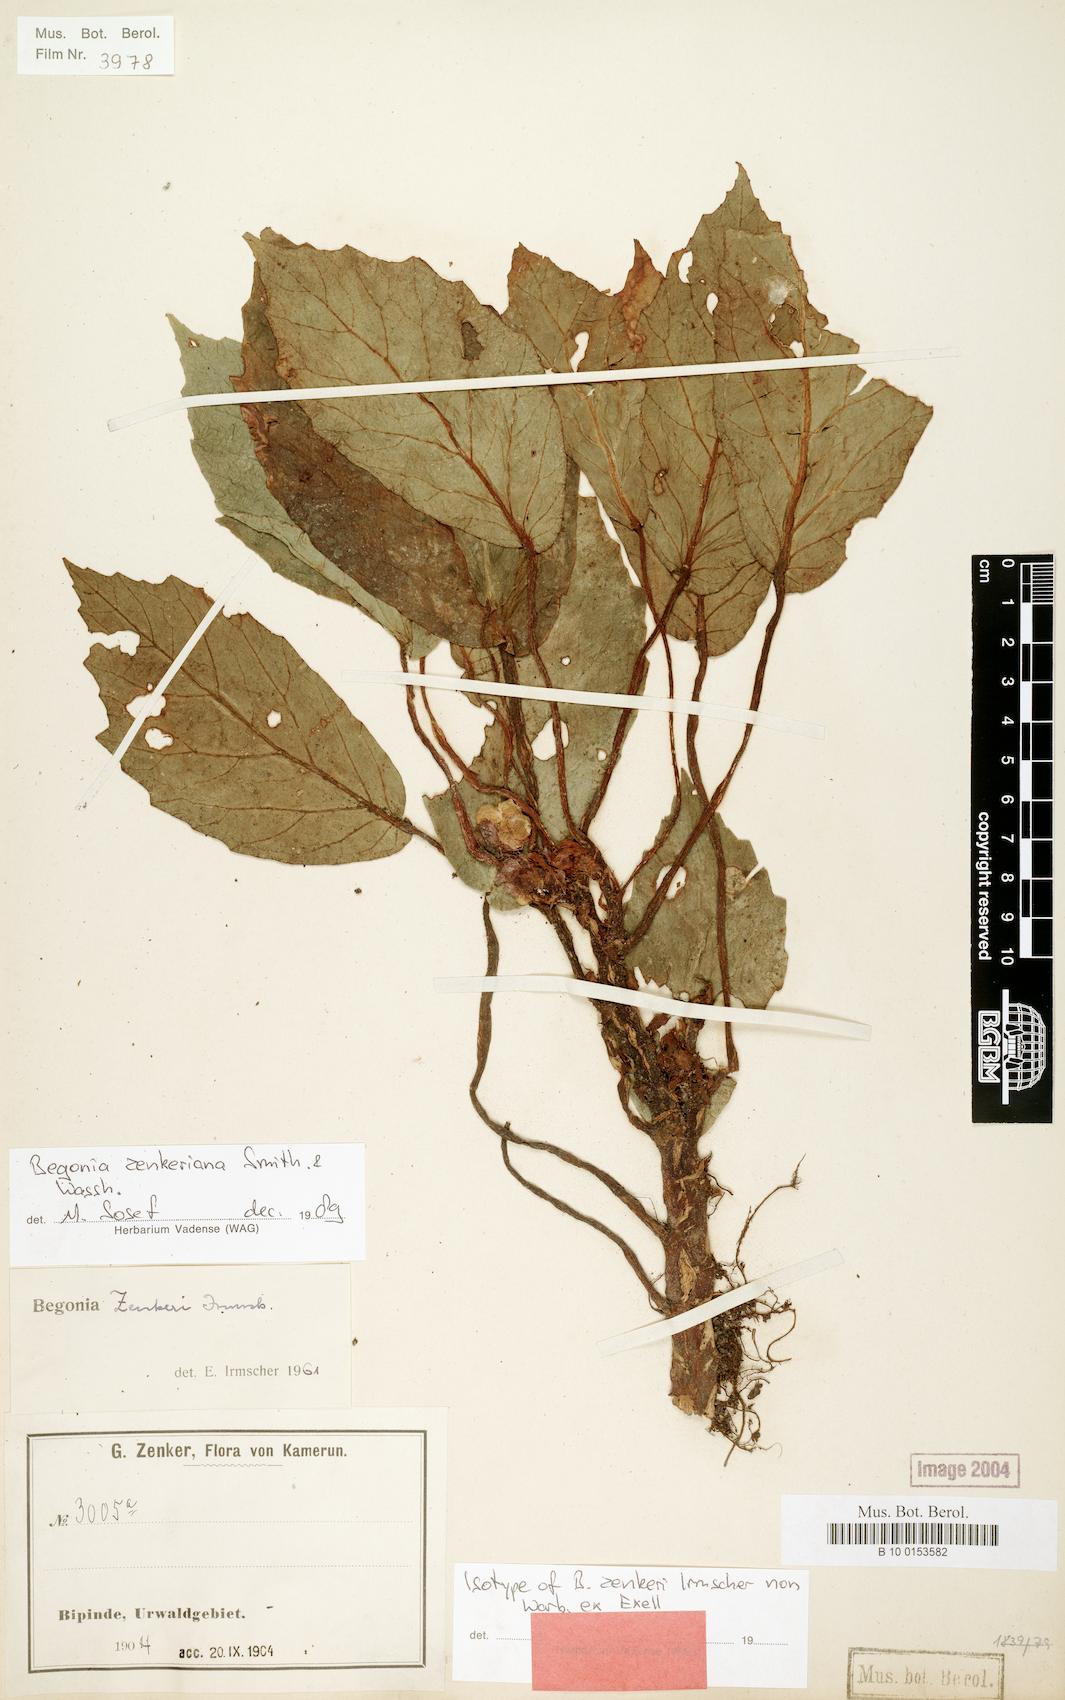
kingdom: Plantae
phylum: Tracheophyta
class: Magnoliopsida
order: Cucurbitales
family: Begoniaceae
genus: Begonia
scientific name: Begonia zenkeriana
